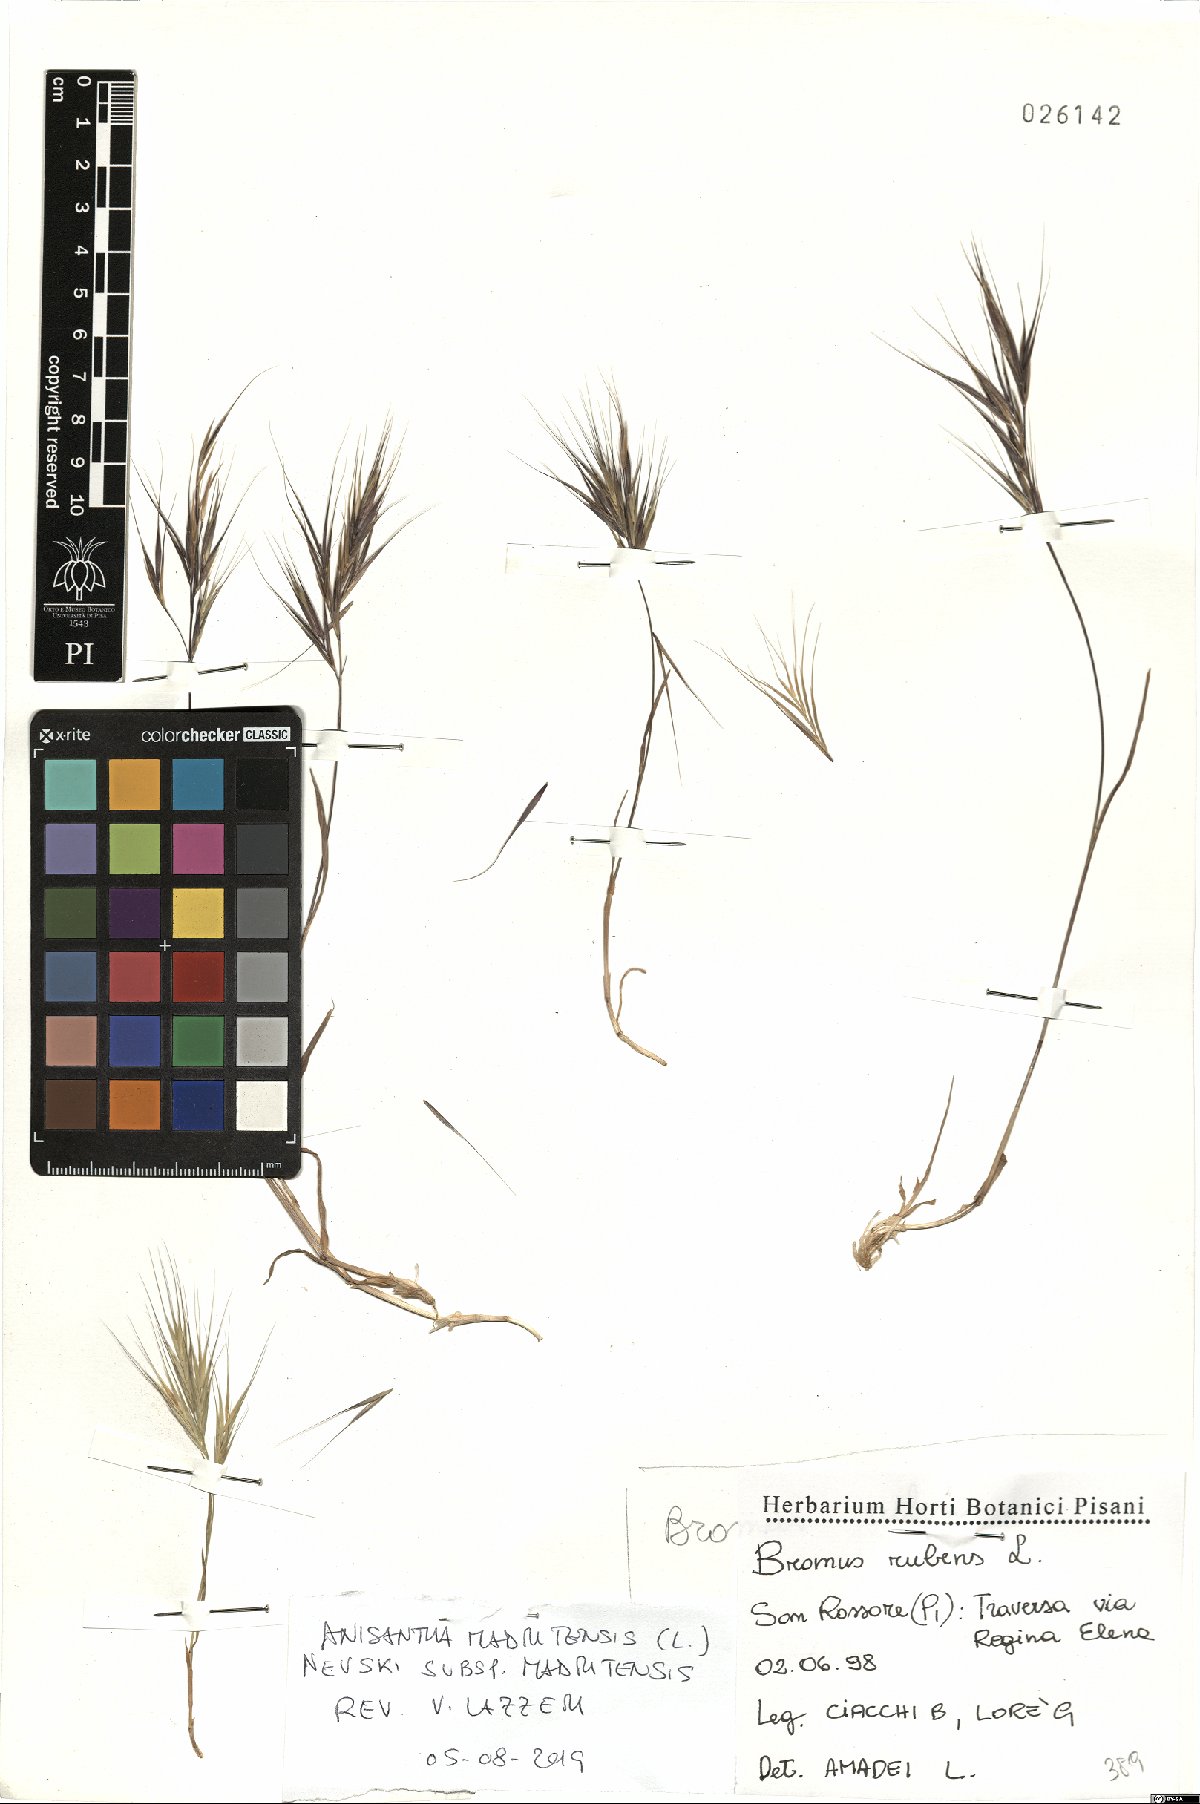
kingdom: Plantae
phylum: Tracheophyta
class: Liliopsida
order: Poales
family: Poaceae
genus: Bromus
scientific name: Bromus madritensis
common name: Compact brome
